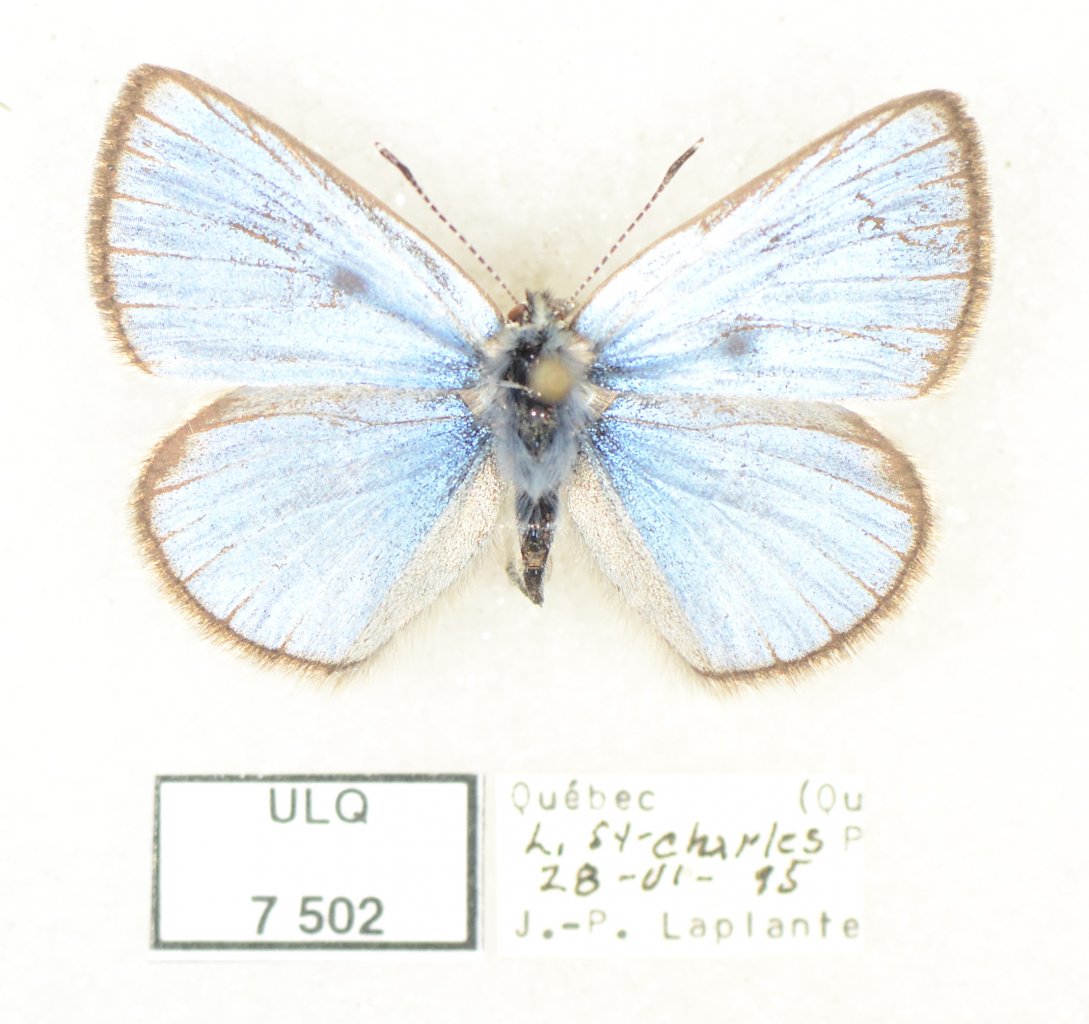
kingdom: Animalia
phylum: Arthropoda
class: Insecta
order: Lepidoptera
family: Lycaenidae
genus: Glaucopsyche
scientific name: Glaucopsyche lygdamus
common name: Silvery Blue
